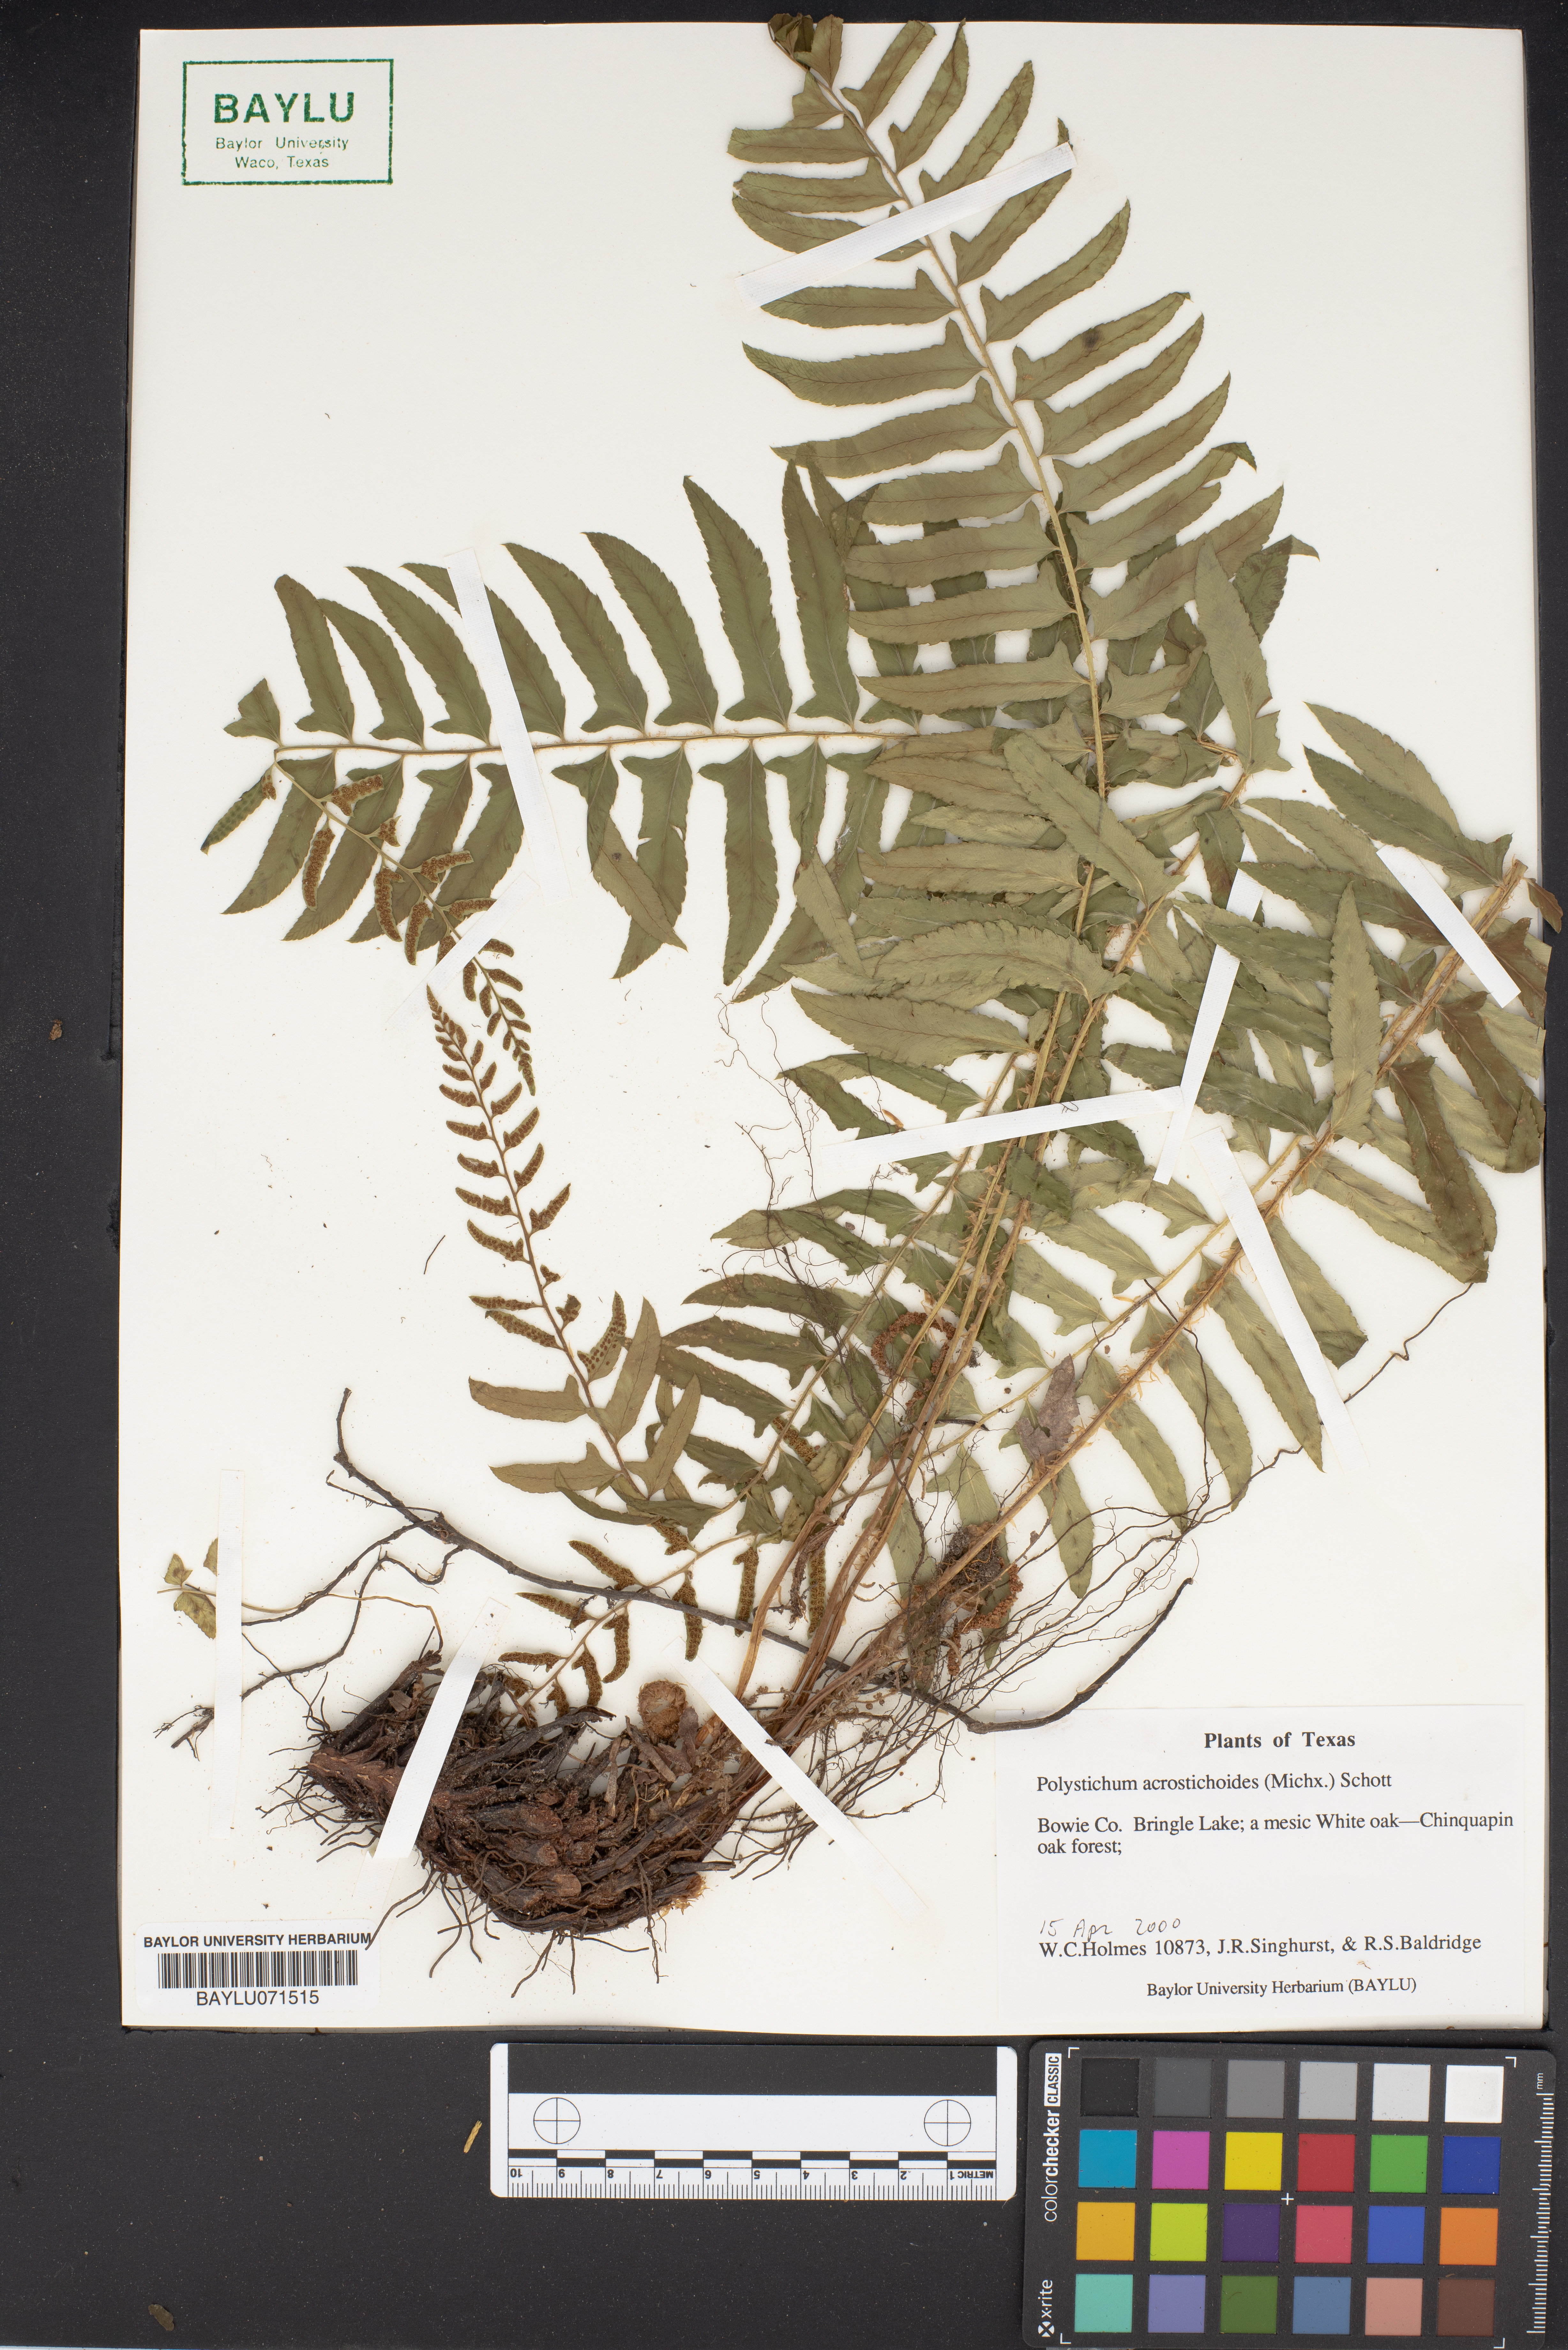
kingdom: Plantae
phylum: Tracheophyta
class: Polypodiopsida
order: Polypodiales
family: Dryopteridaceae
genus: Polystichum
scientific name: Polystichum acrostichoides
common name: Christmas fern
